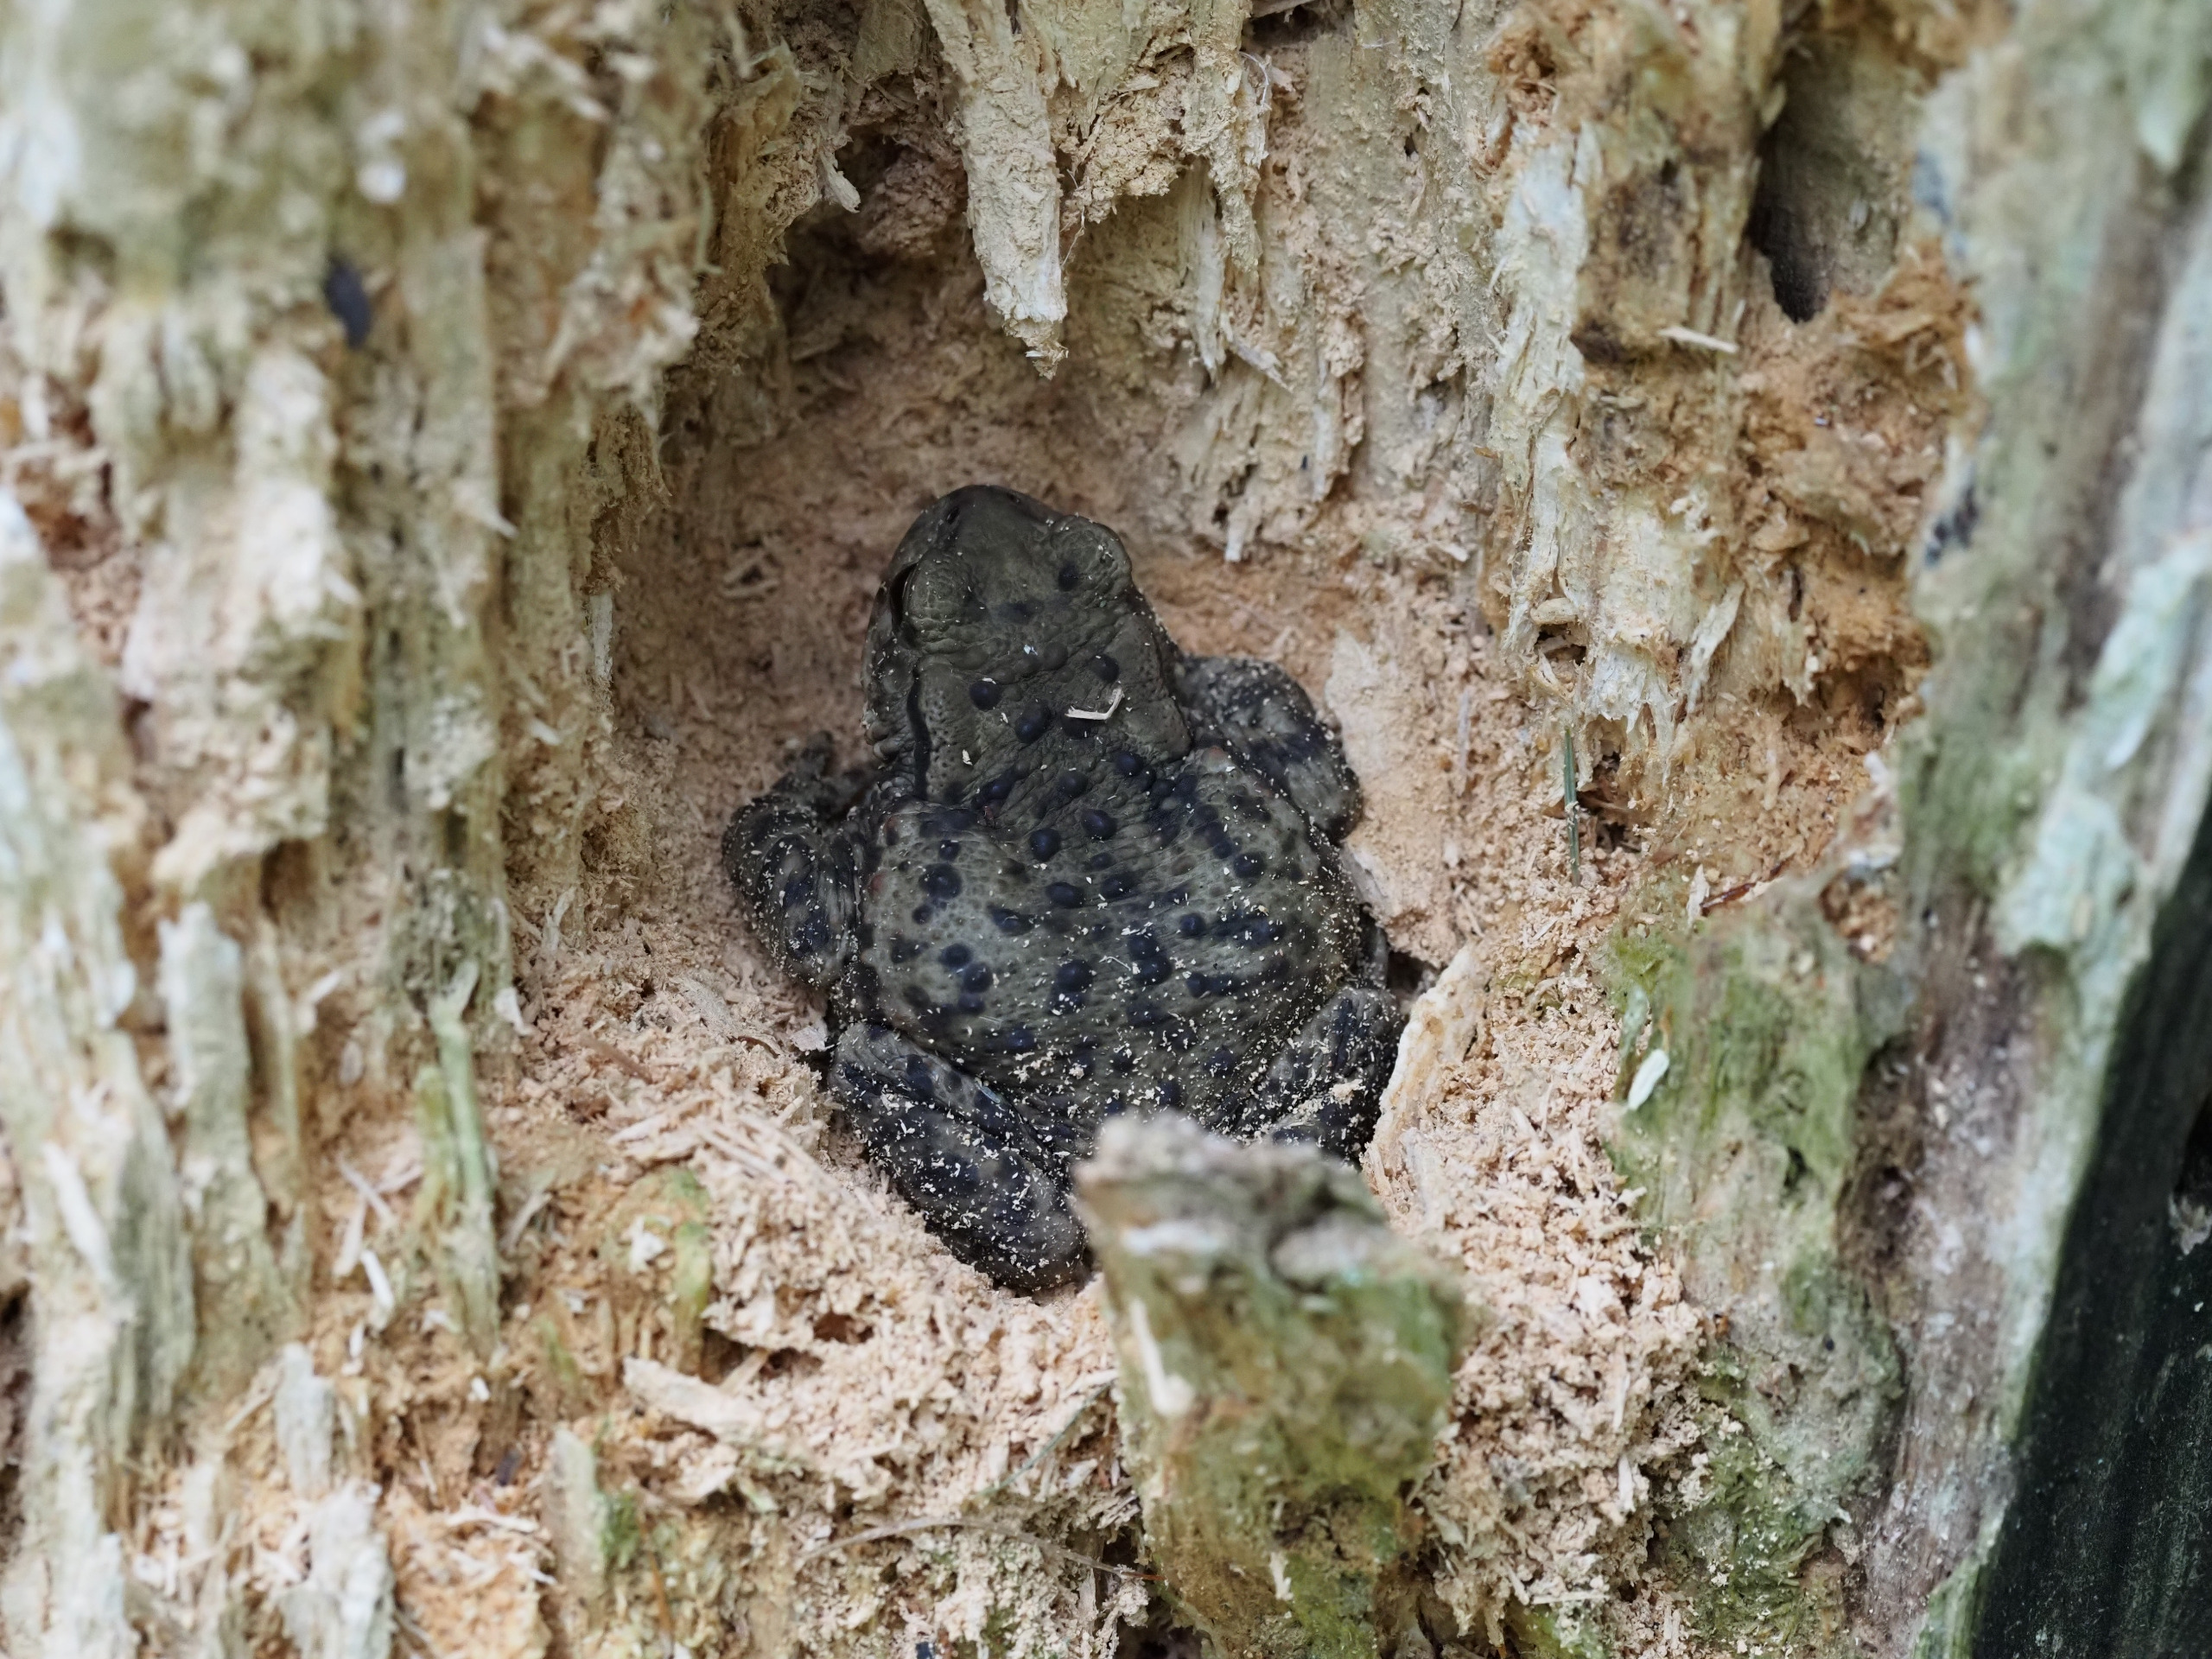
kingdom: Animalia
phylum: Chordata
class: Amphibia
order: Anura
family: Bufonidae
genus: Bufo
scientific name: Bufo bufo
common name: Skrubtudse
